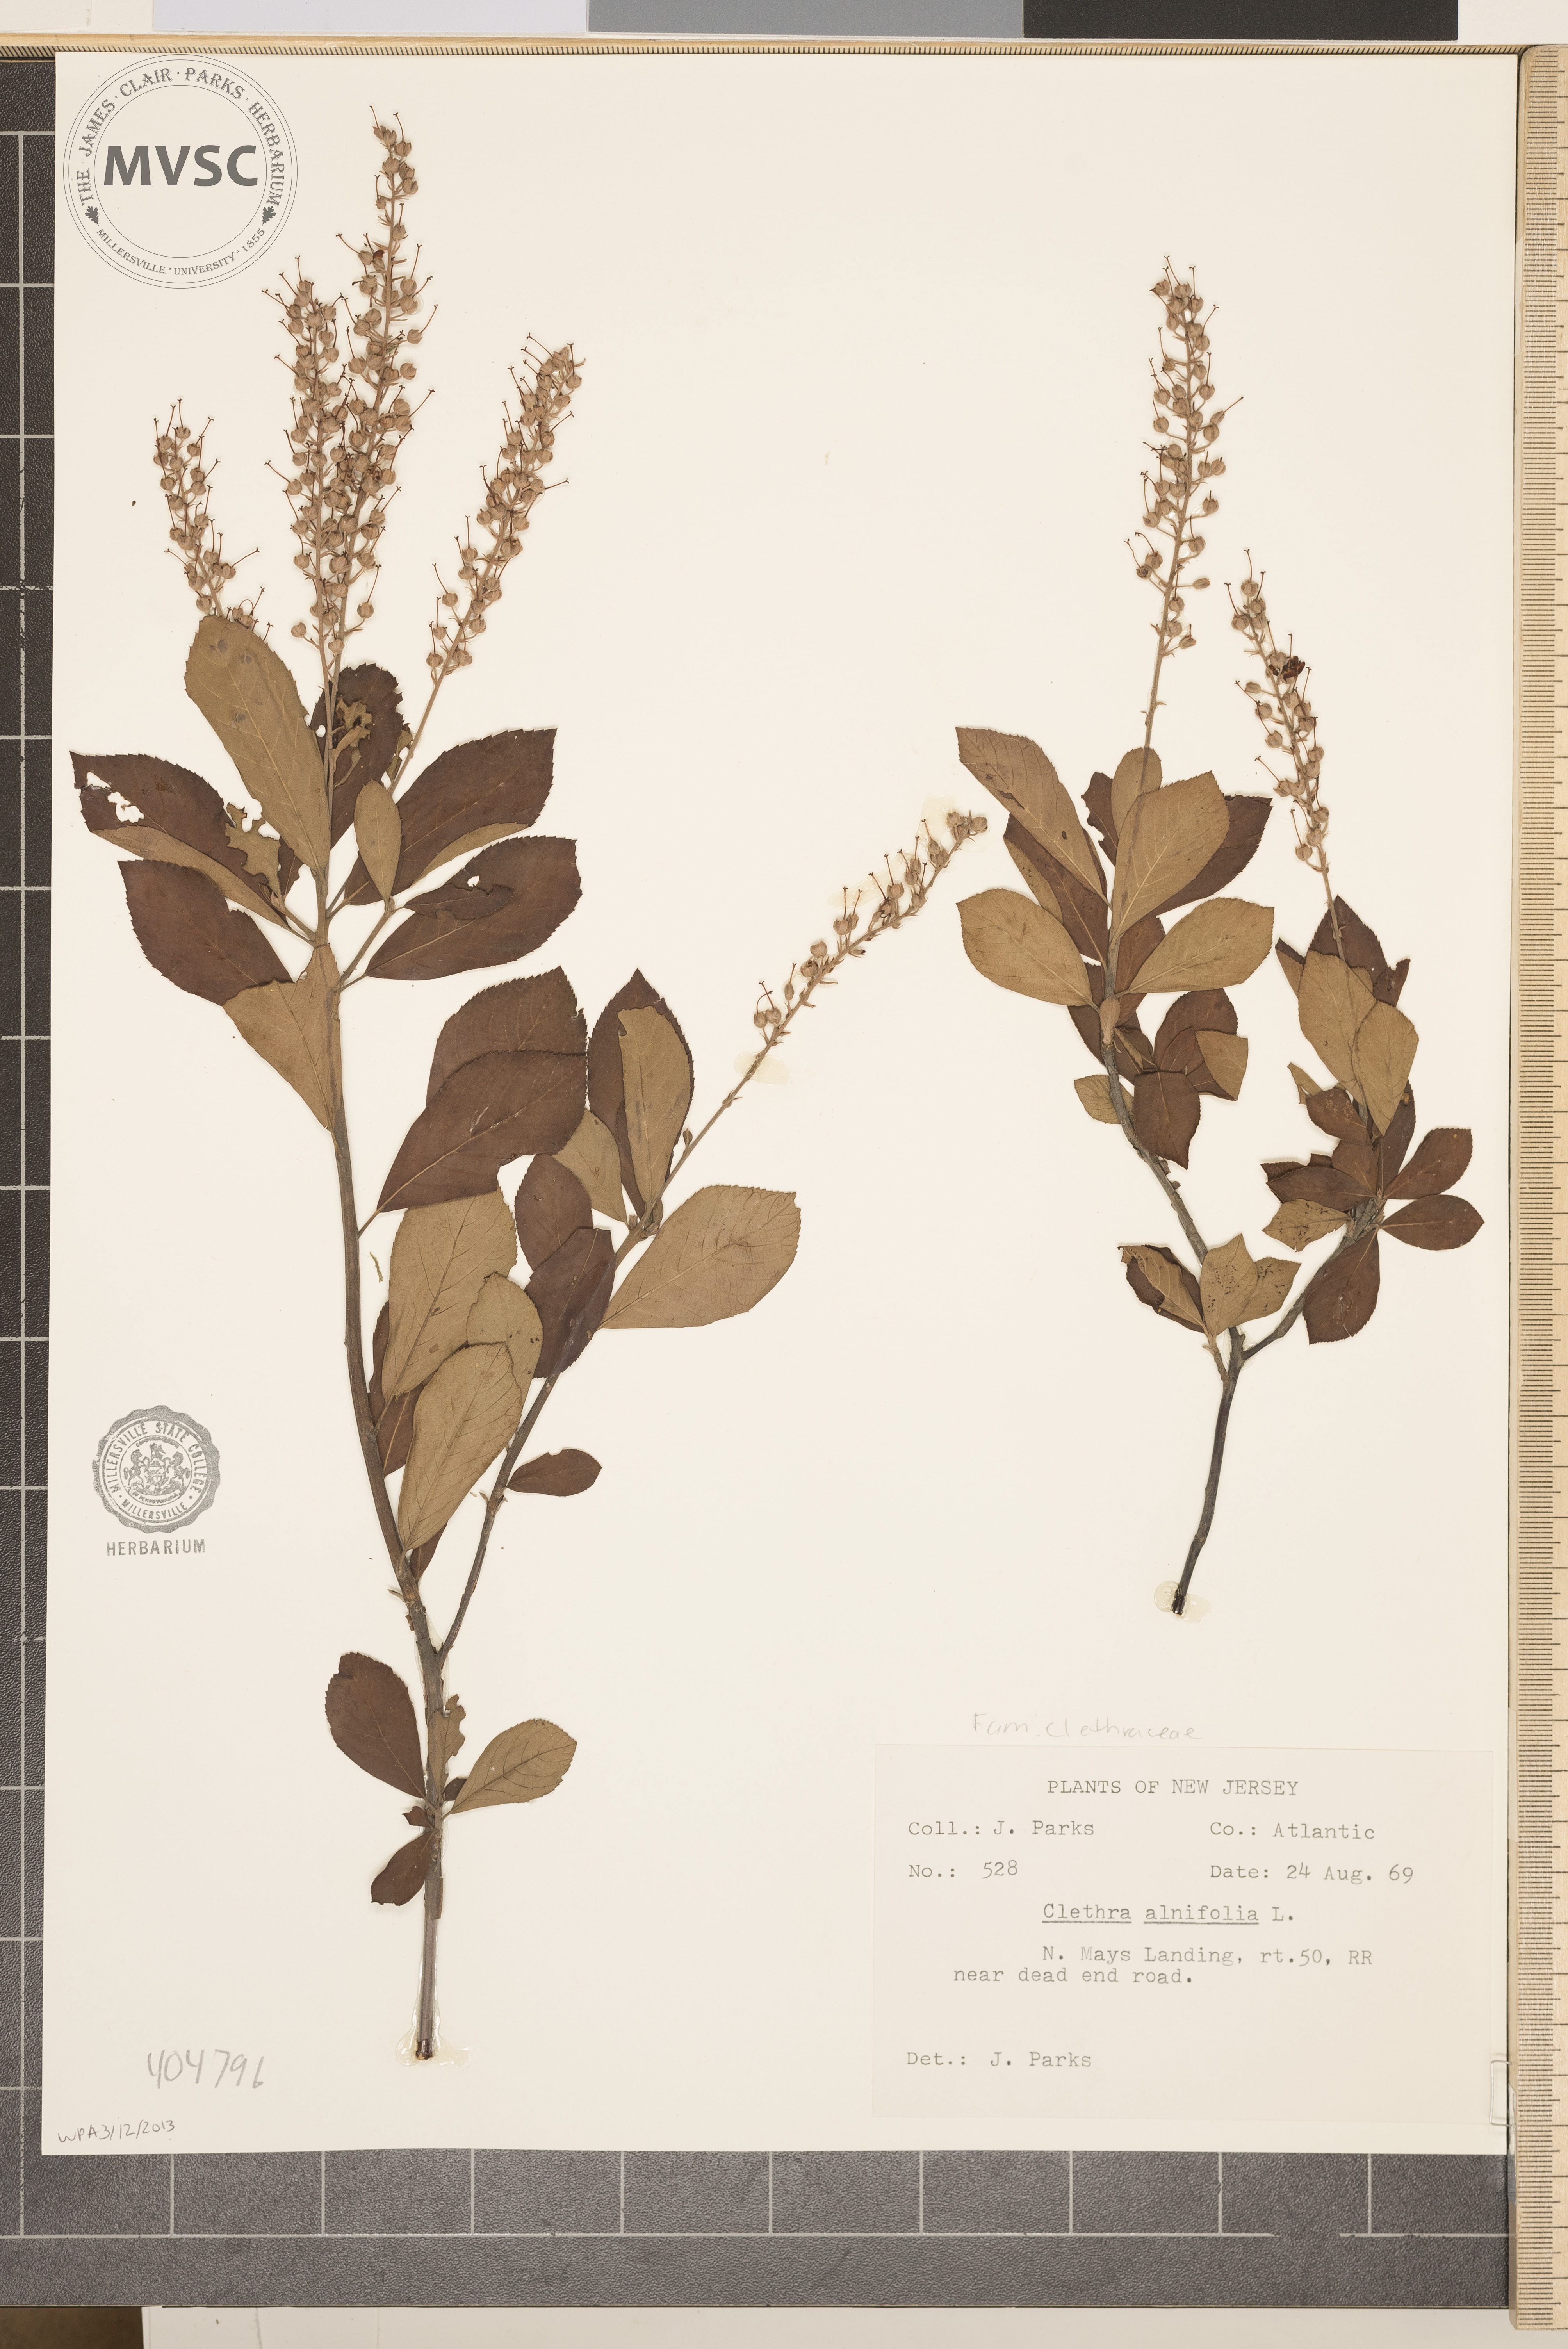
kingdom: Plantae
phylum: Tracheophyta
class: Magnoliopsida
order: Ericales
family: Clethraceae
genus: Clethra
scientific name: Clethra alnifolia
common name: Sweet pepperbush
